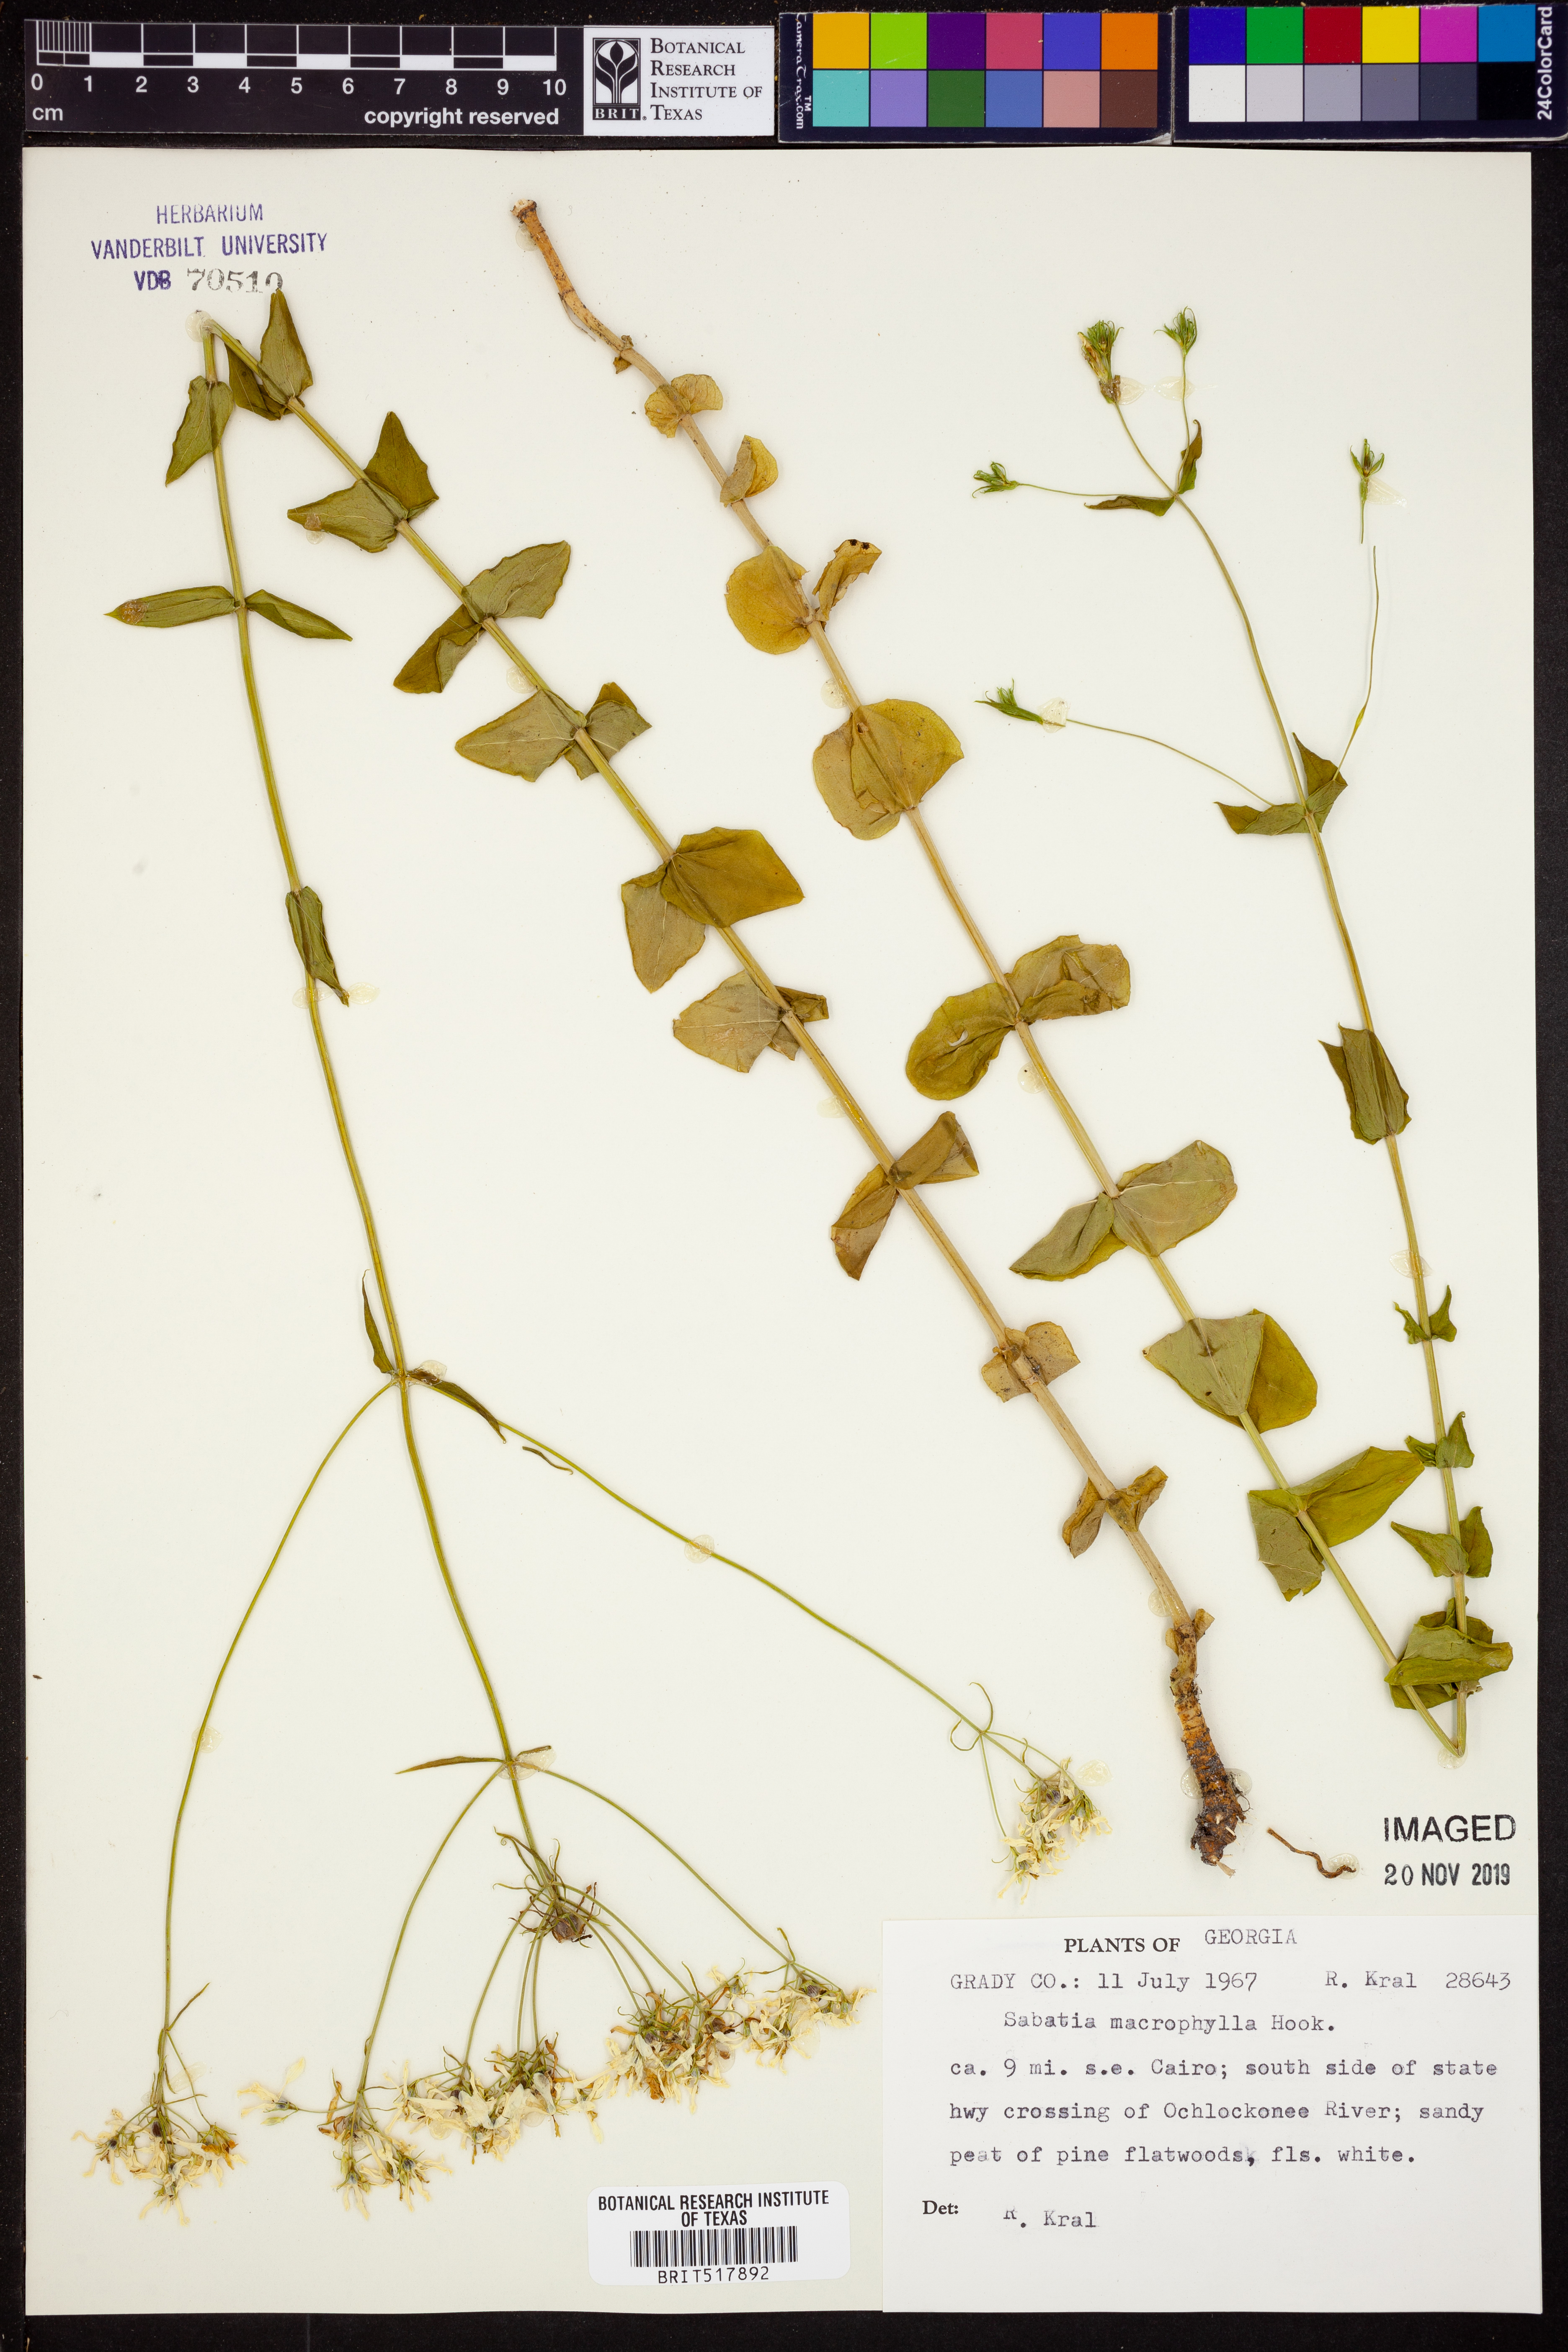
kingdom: Plantae
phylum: Tracheophyta
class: Magnoliopsida
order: Gentianales
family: Gentianaceae
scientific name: Gentianaceae
